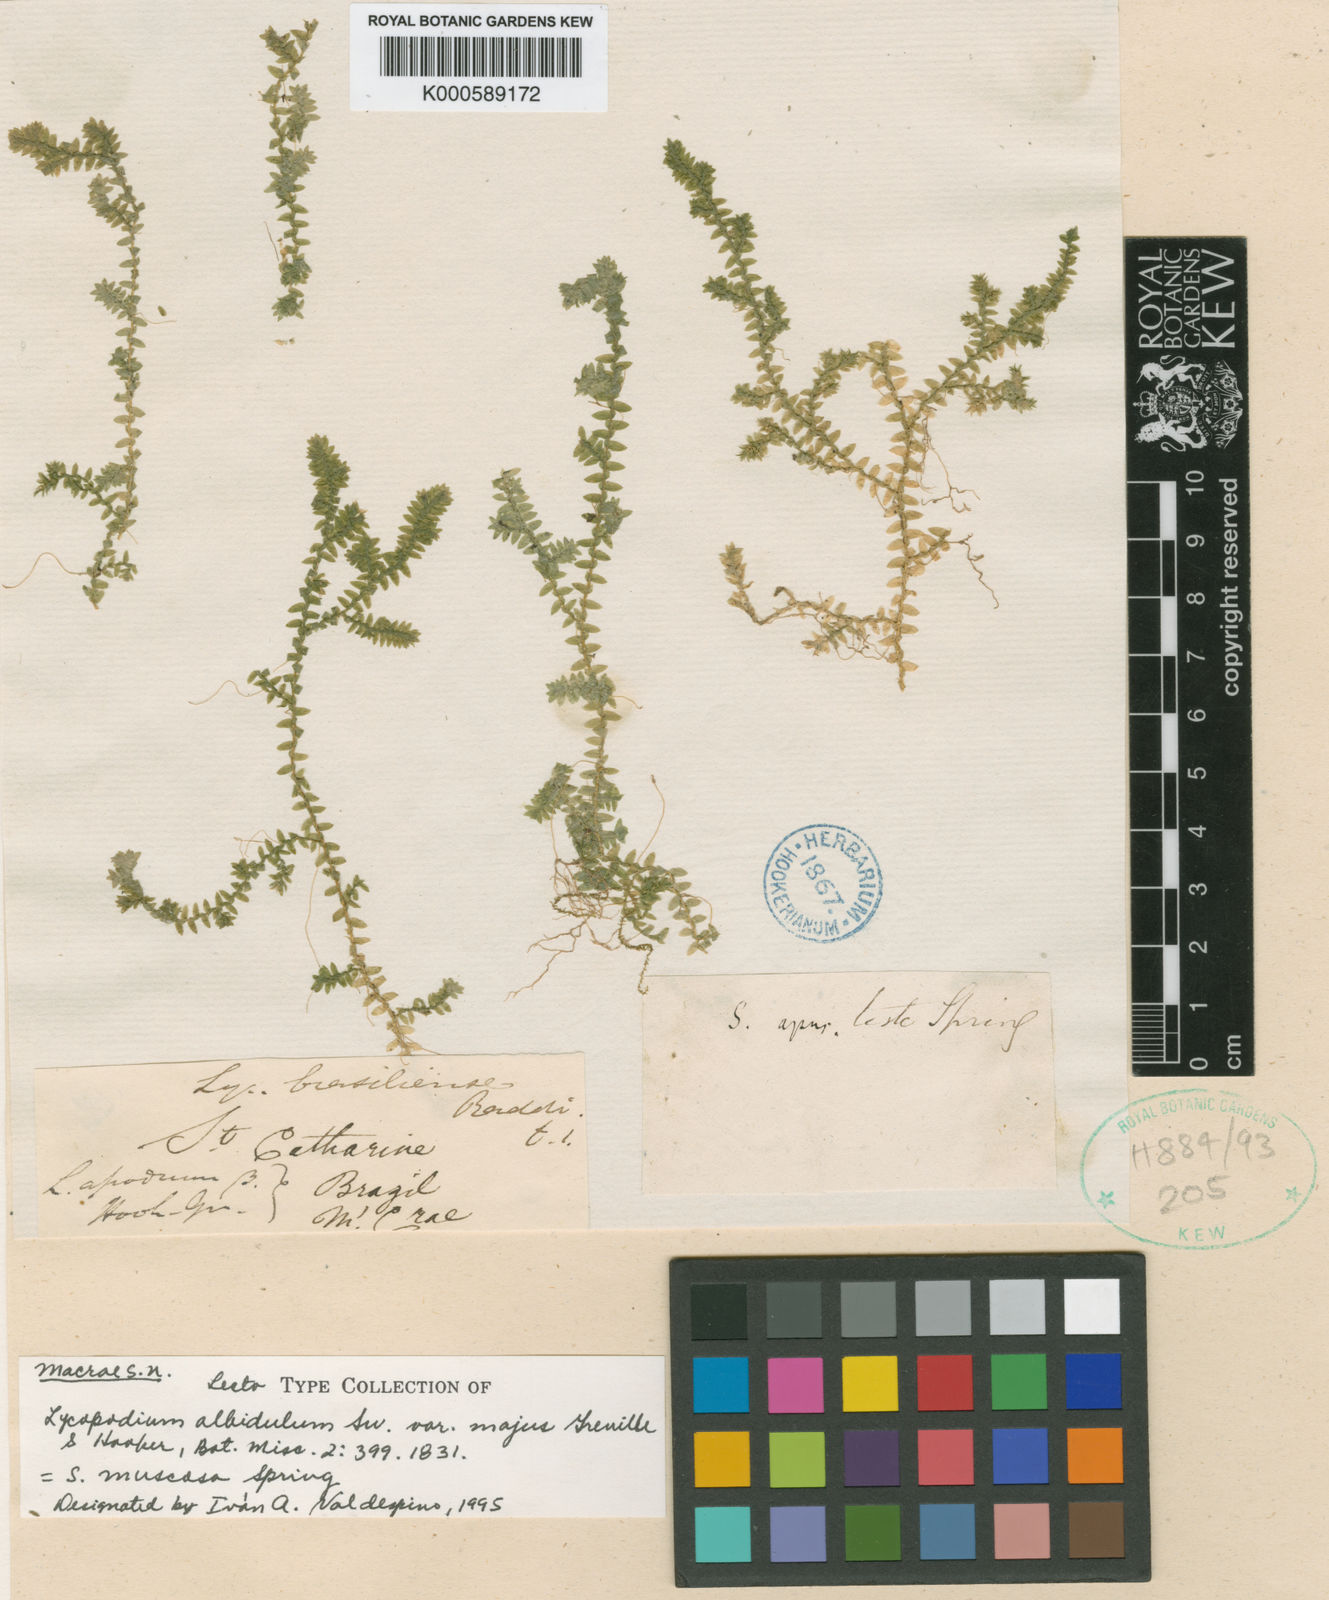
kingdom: Plantae
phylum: Tracheophyta
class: Lycopodiopsida
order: Selaginellales
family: Selaginellaceae
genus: Selaginella
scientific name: Selaginella muscosa
